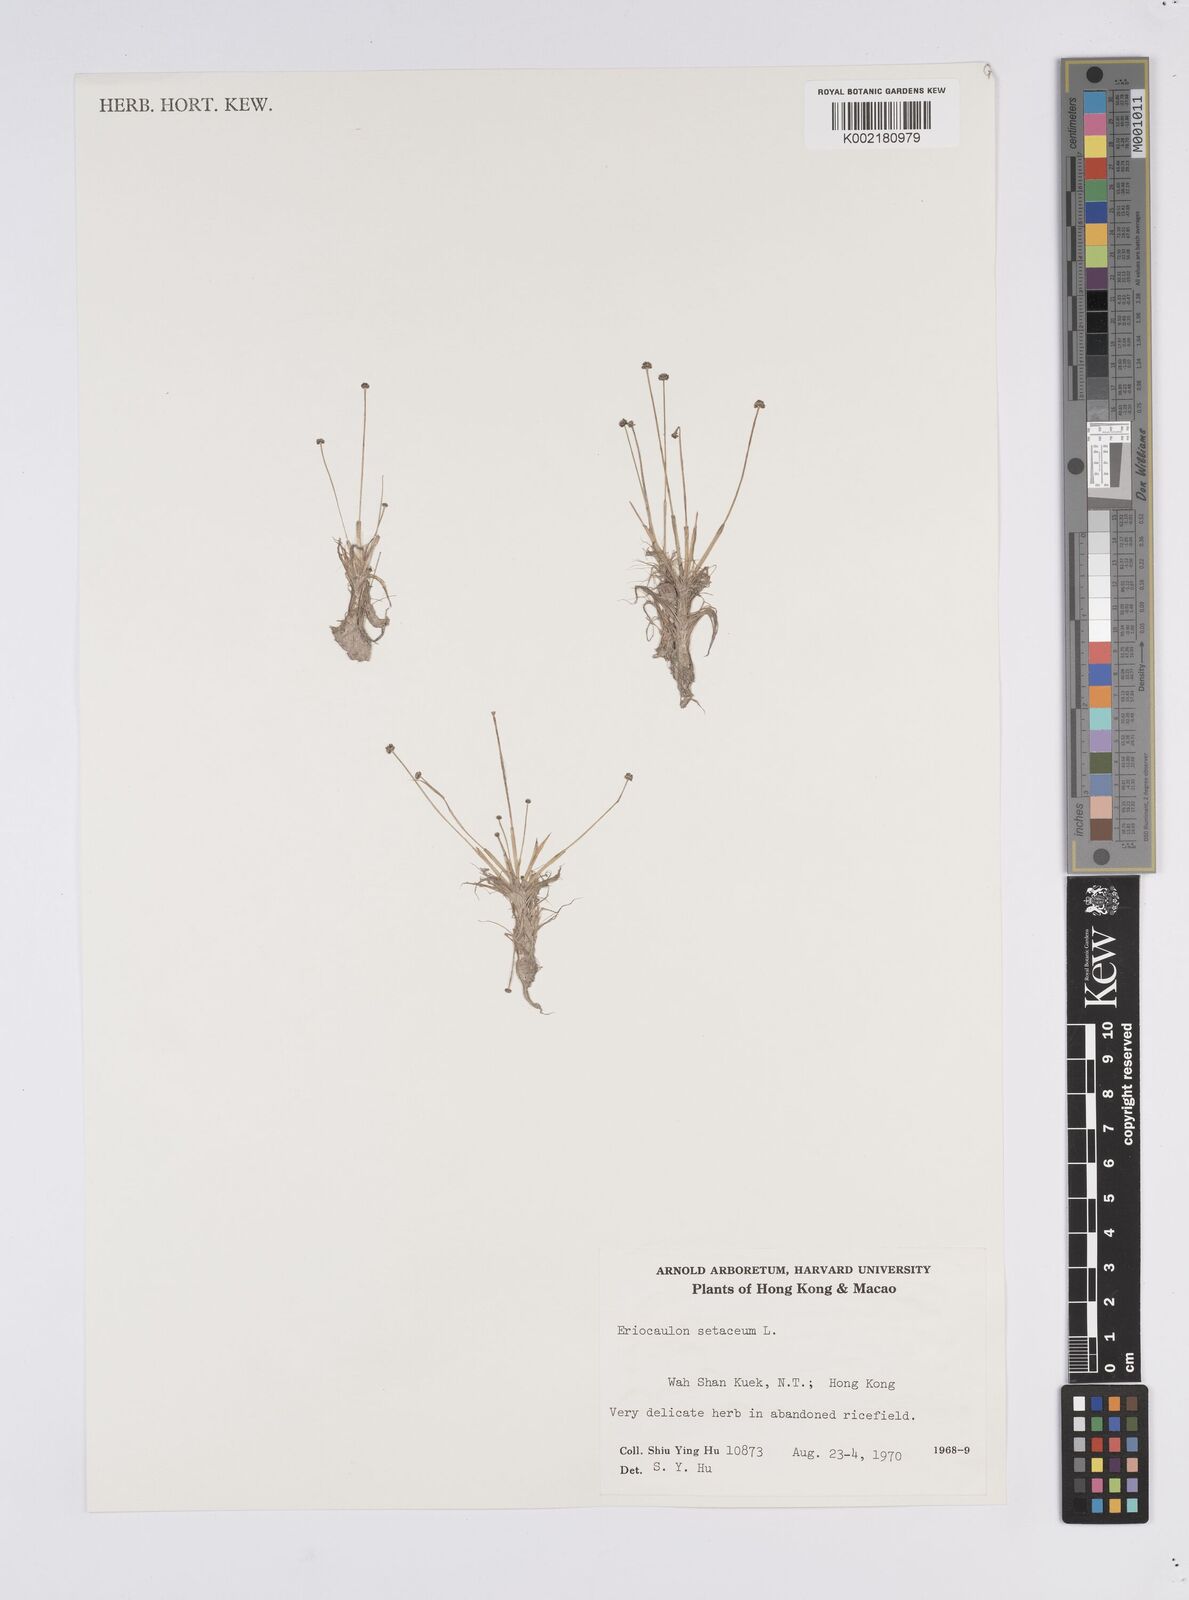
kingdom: Plantae
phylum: Tracheophyta
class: Liliopsida
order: Poales
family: Eriocaulaceae
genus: Eriocaulon
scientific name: Eriocaulon setaceum
